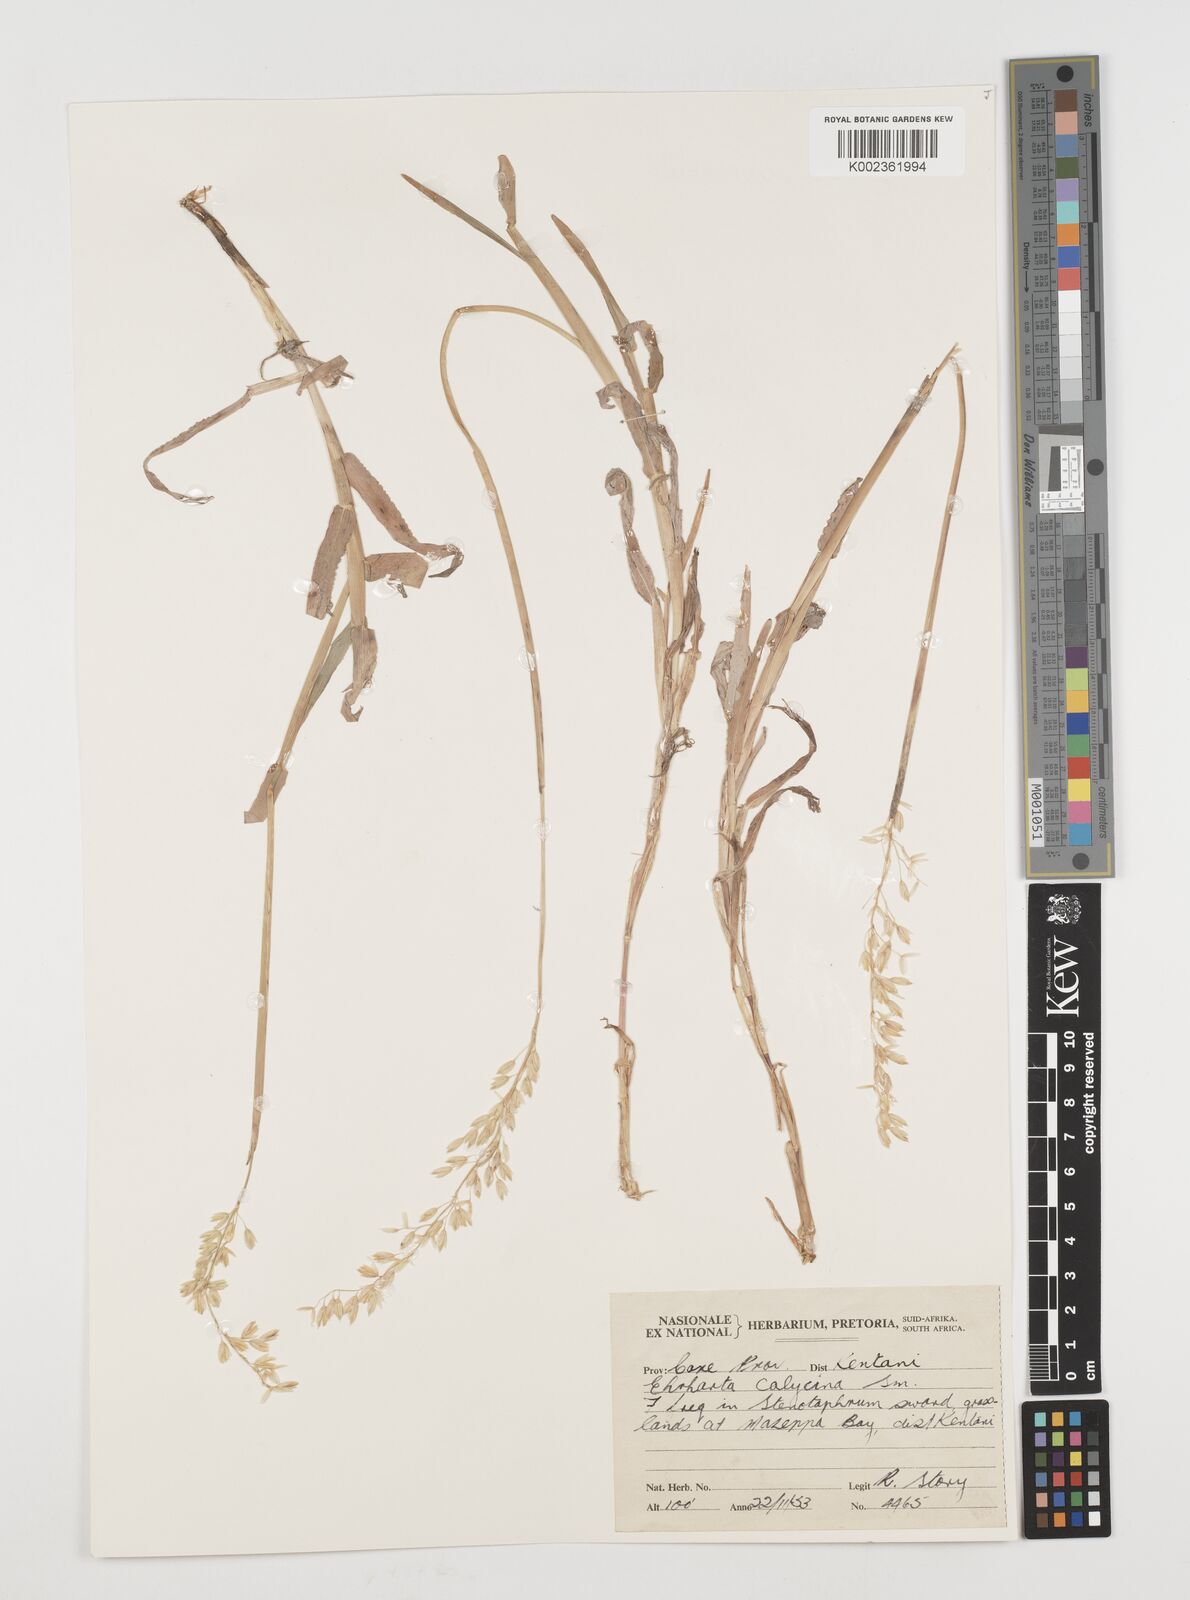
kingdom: Plantae
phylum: Tracheophyta
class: Liliopsida
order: Poales
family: Poaceae
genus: Ehrharta
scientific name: Ehrharta calycina
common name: Perennial veldtgrass
